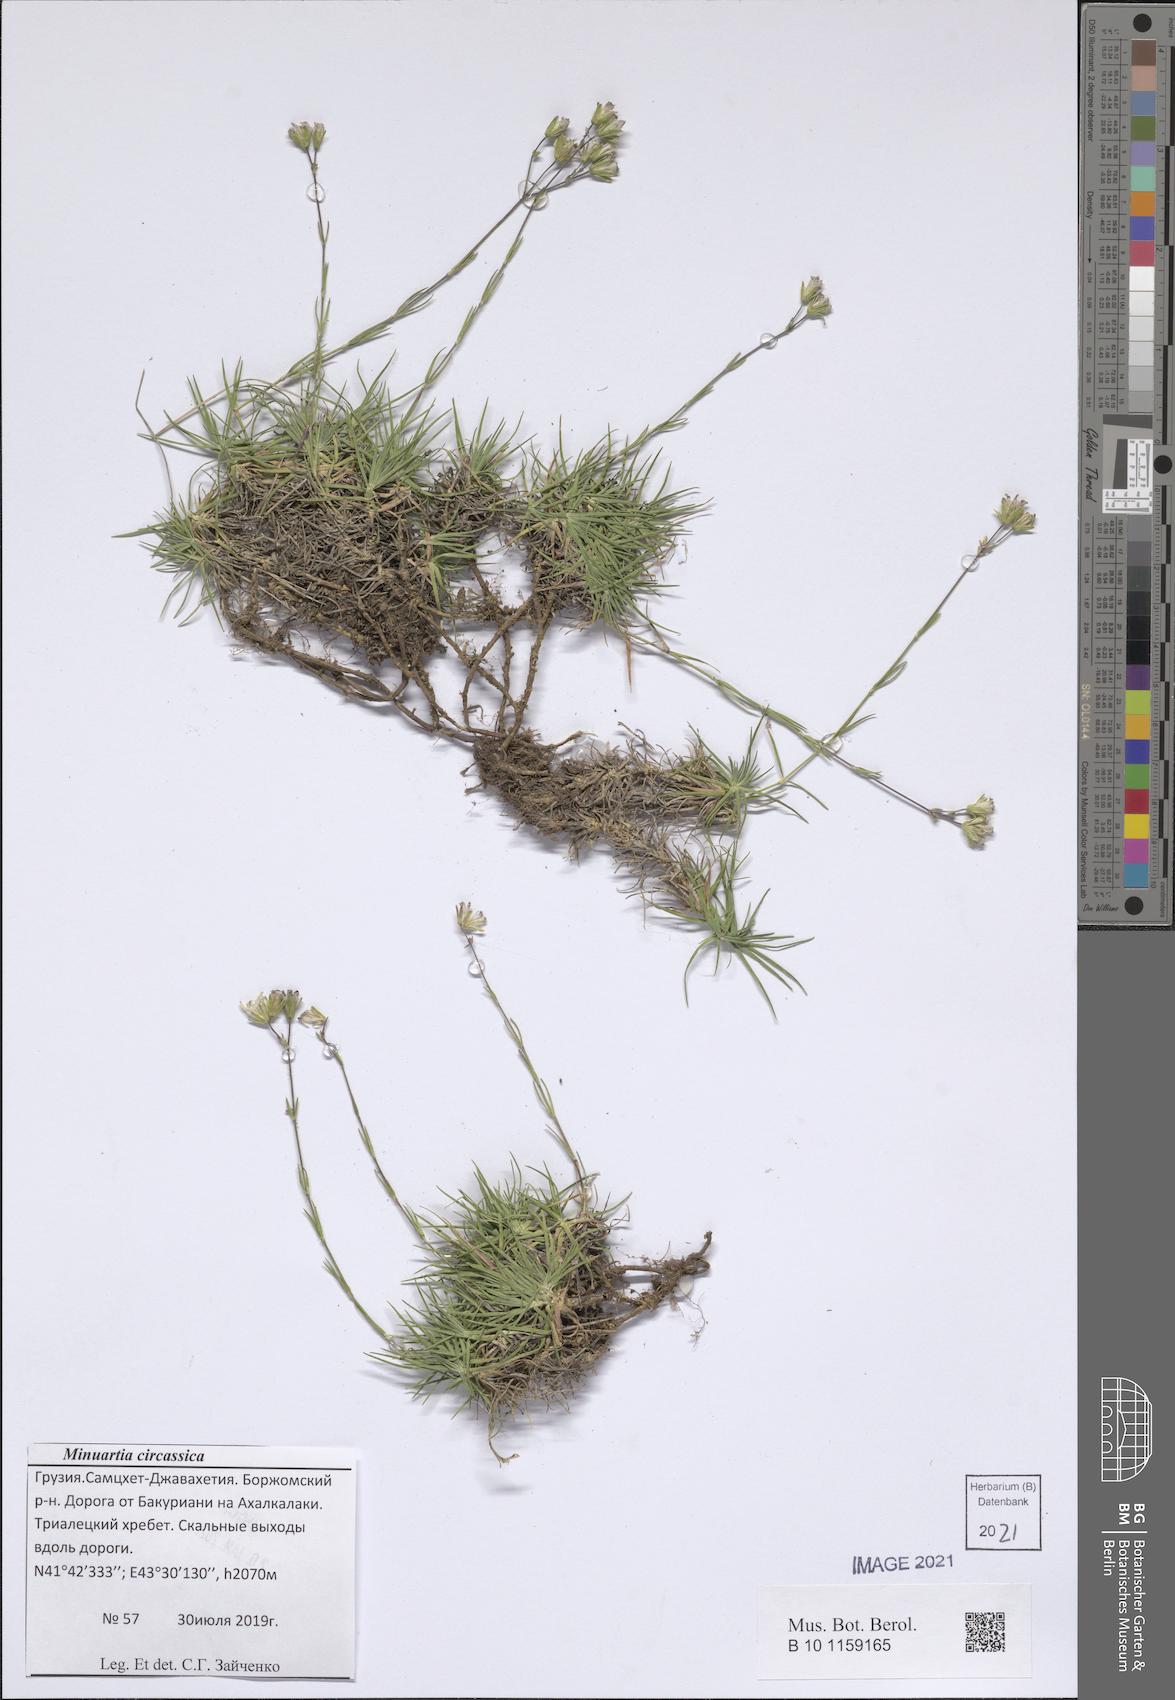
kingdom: Plantae
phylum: Tracheophyta
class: Magnoliopsida
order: Caryophyllales
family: Caryophyllaceae
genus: Cherleria
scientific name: Cherleria circassica
